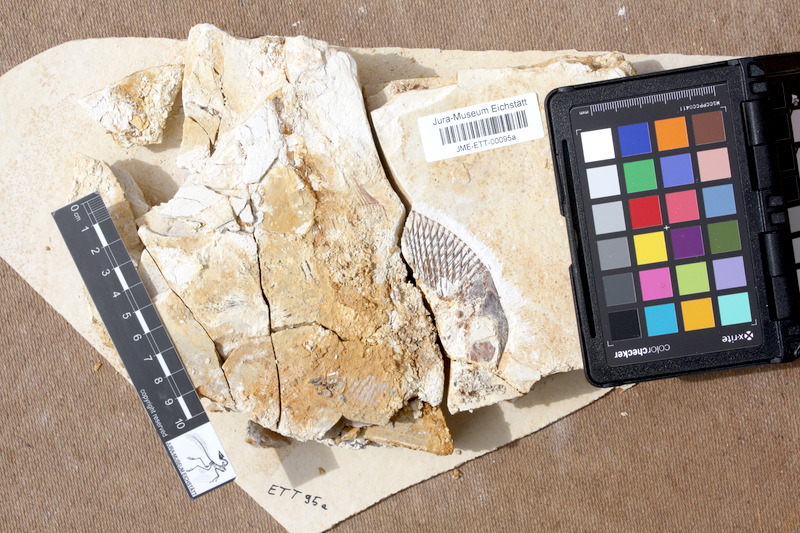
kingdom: Animalia
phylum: Chordata
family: Pycnodontidae
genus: Turbomesodon
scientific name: Turbomesodon relegans
